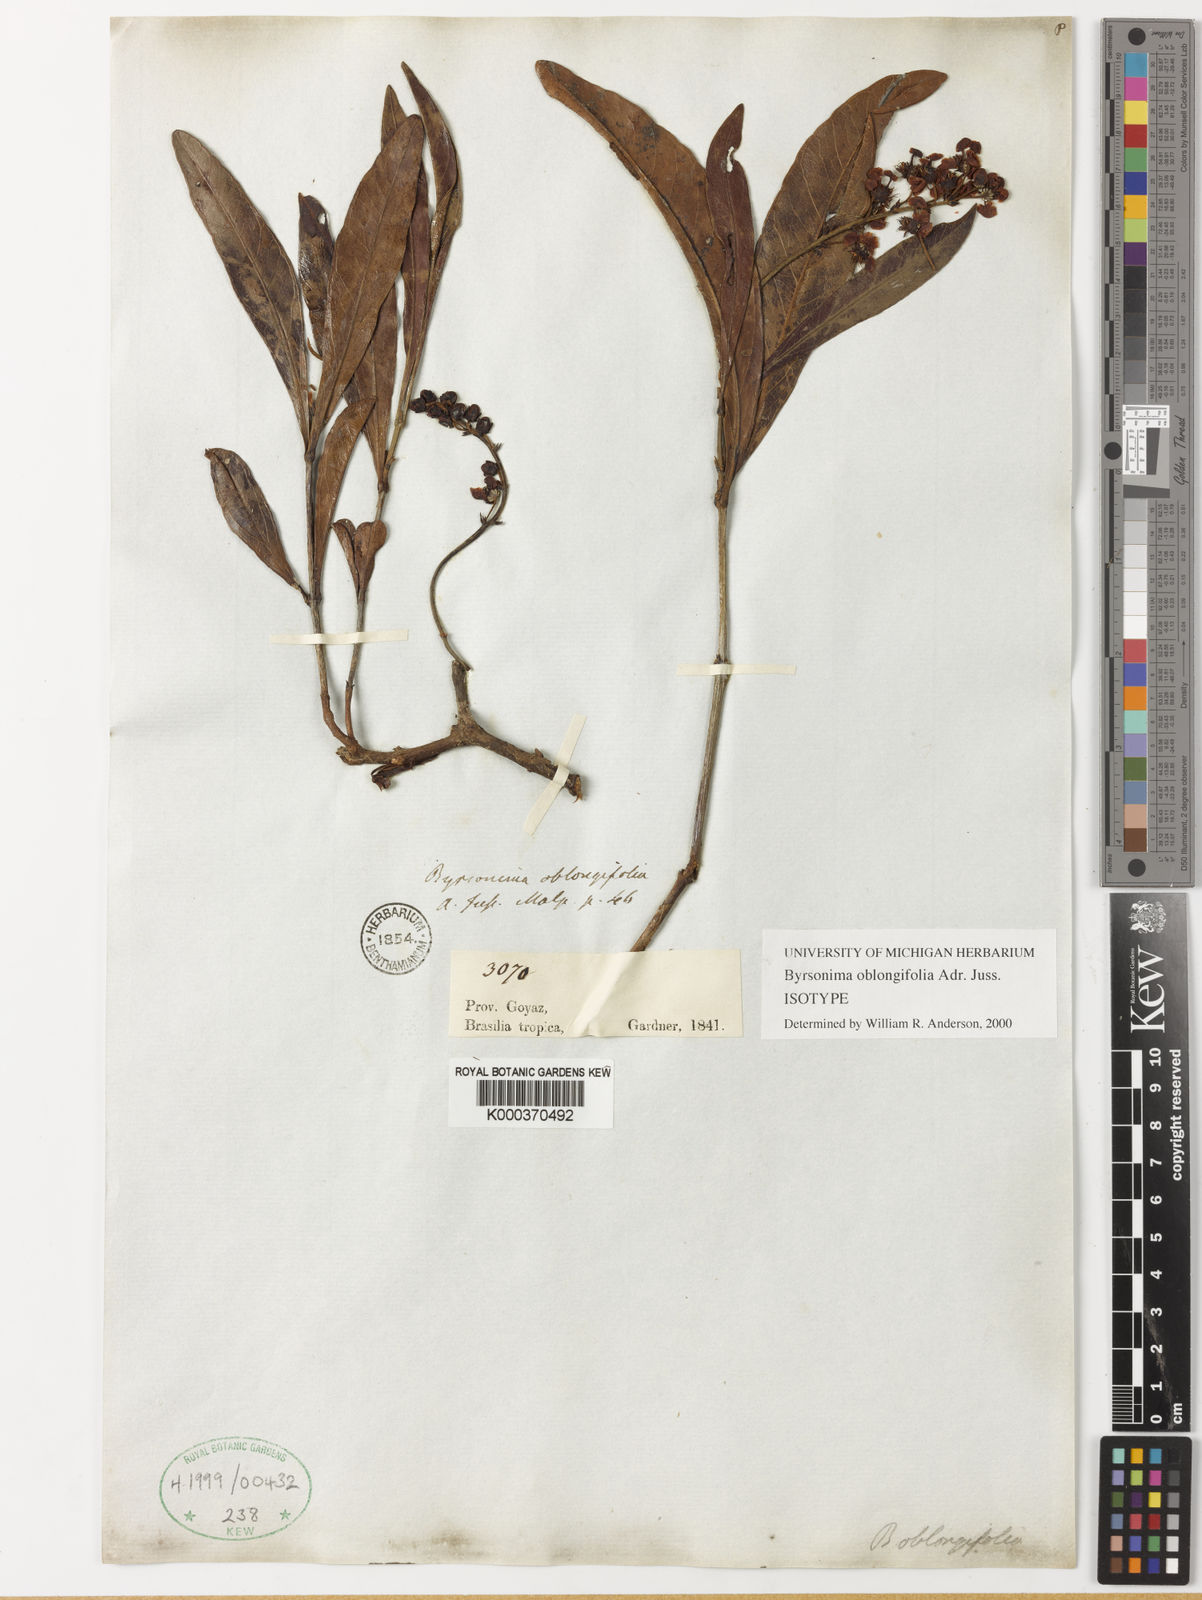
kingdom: Plantae
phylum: Tracheophyta
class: Magnoliopsida
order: Malpighiales
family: Malpighiaceae
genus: Byrsonima
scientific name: Byrsonima oblongifolia
